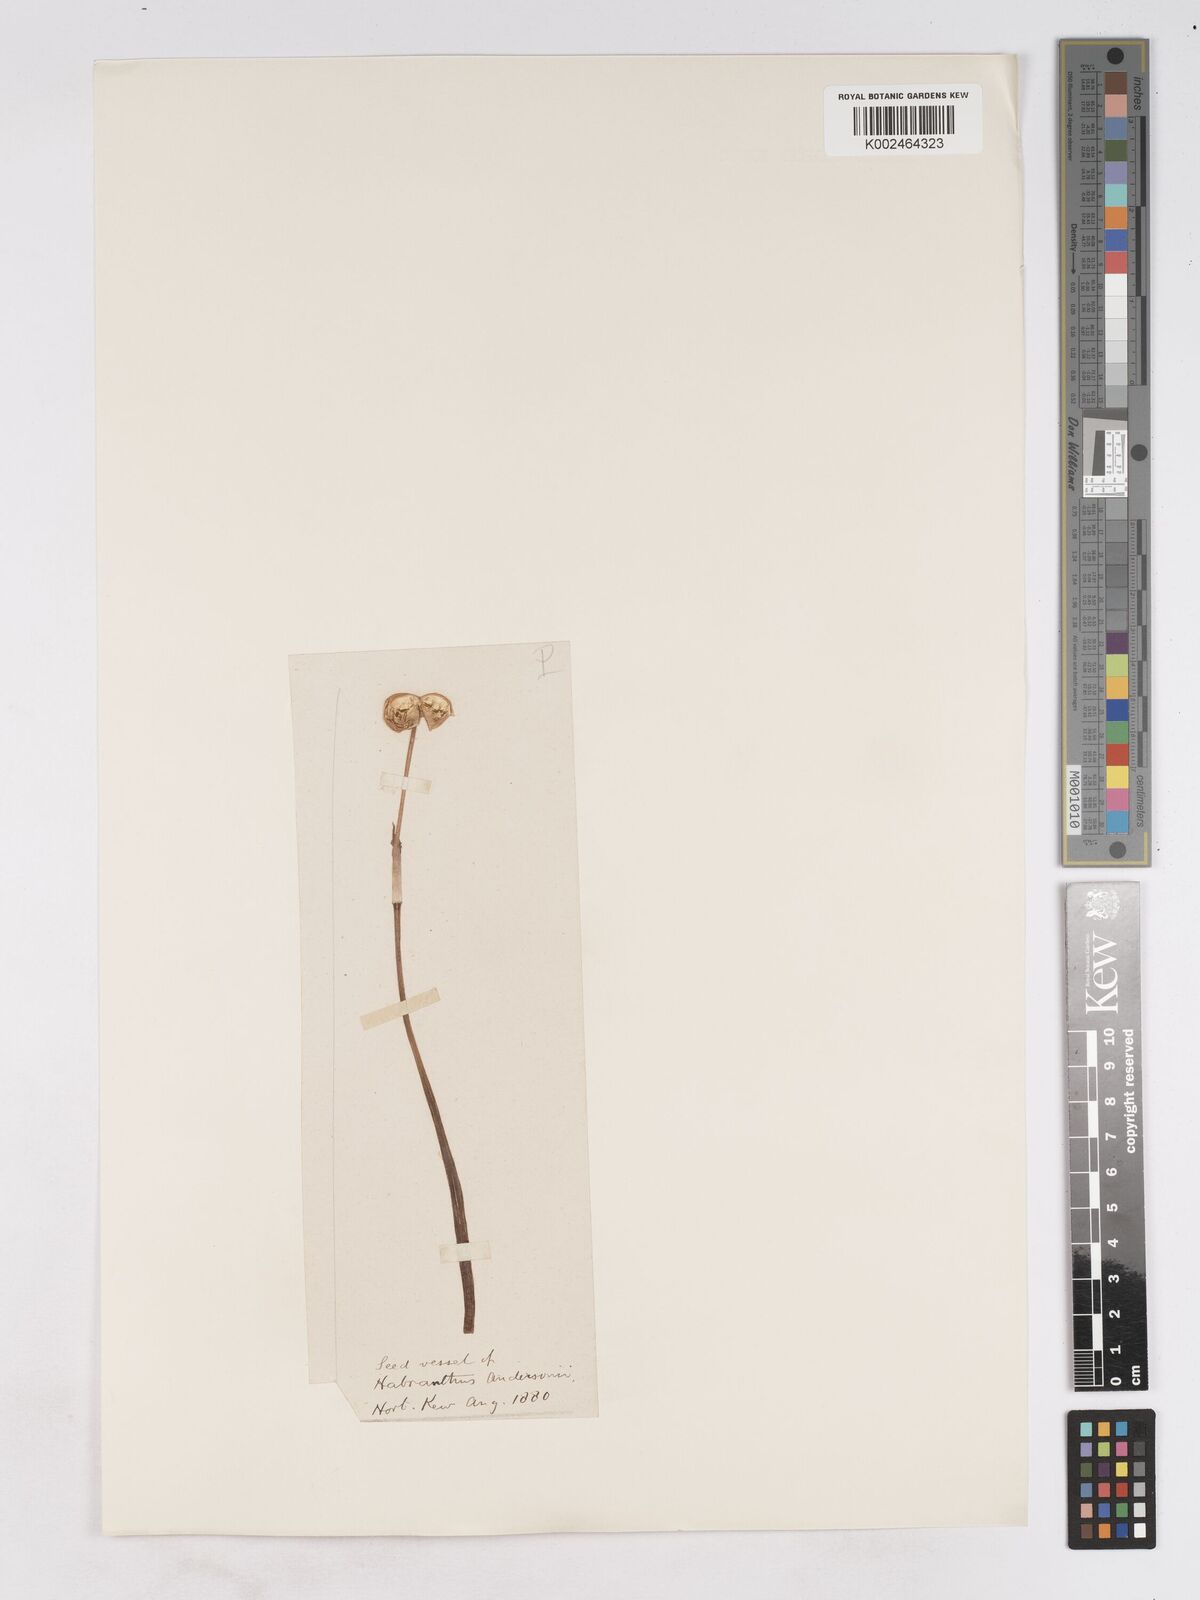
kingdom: Plantae
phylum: Tracheophyta
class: Liliopsida
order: Asparagales
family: Amaryllidaceae
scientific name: Amaryllidaceae
